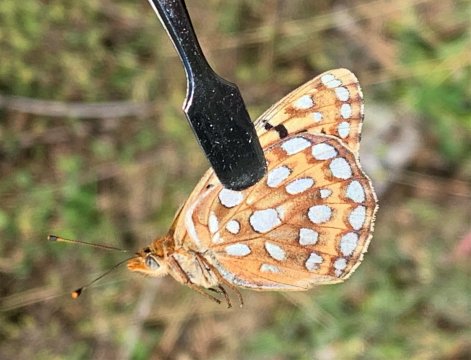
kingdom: Animalia
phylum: Arthropoda
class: Insecta
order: Lepidoptera
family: Nymphalidae
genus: Speyeria
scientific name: Speyeria coronis
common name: Coronis Fritillary
